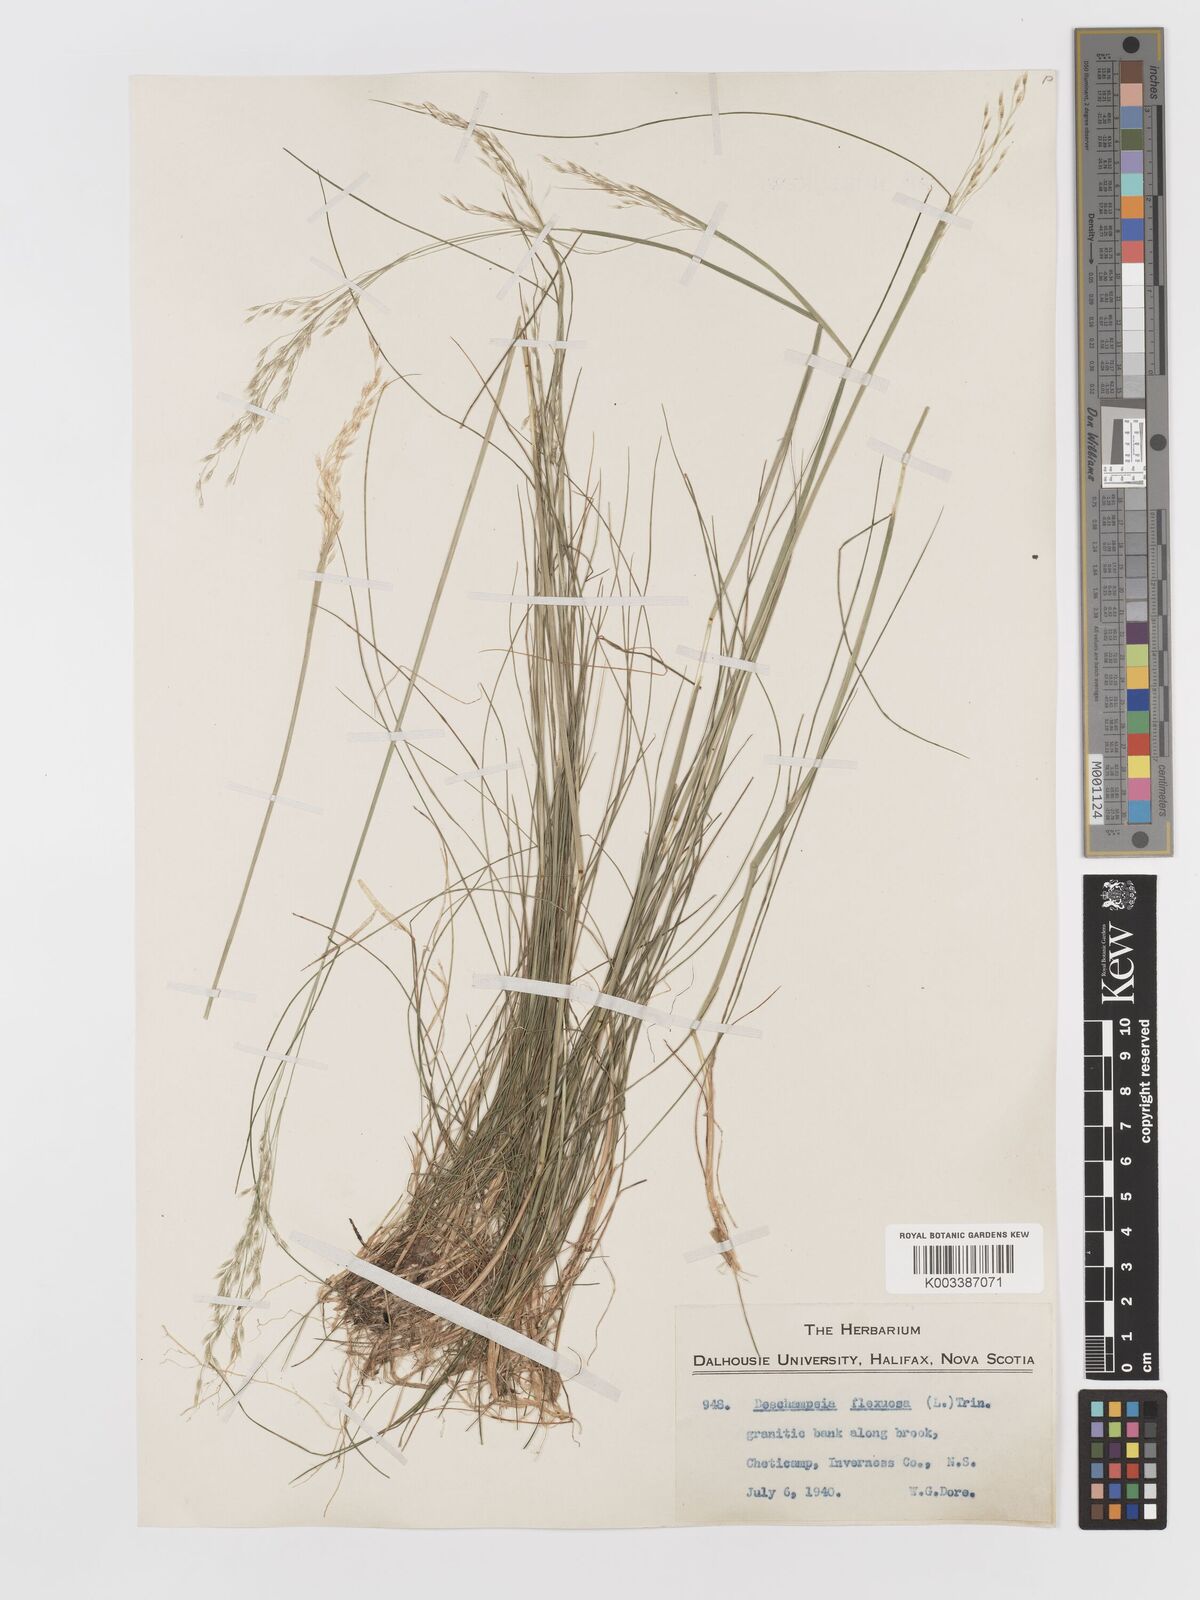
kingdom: Plantae
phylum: Tracheophyta
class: Liliopsida
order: Poales
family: Poaceae
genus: Avenella
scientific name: Avenella flexuosa
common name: Wavy hairgrass
